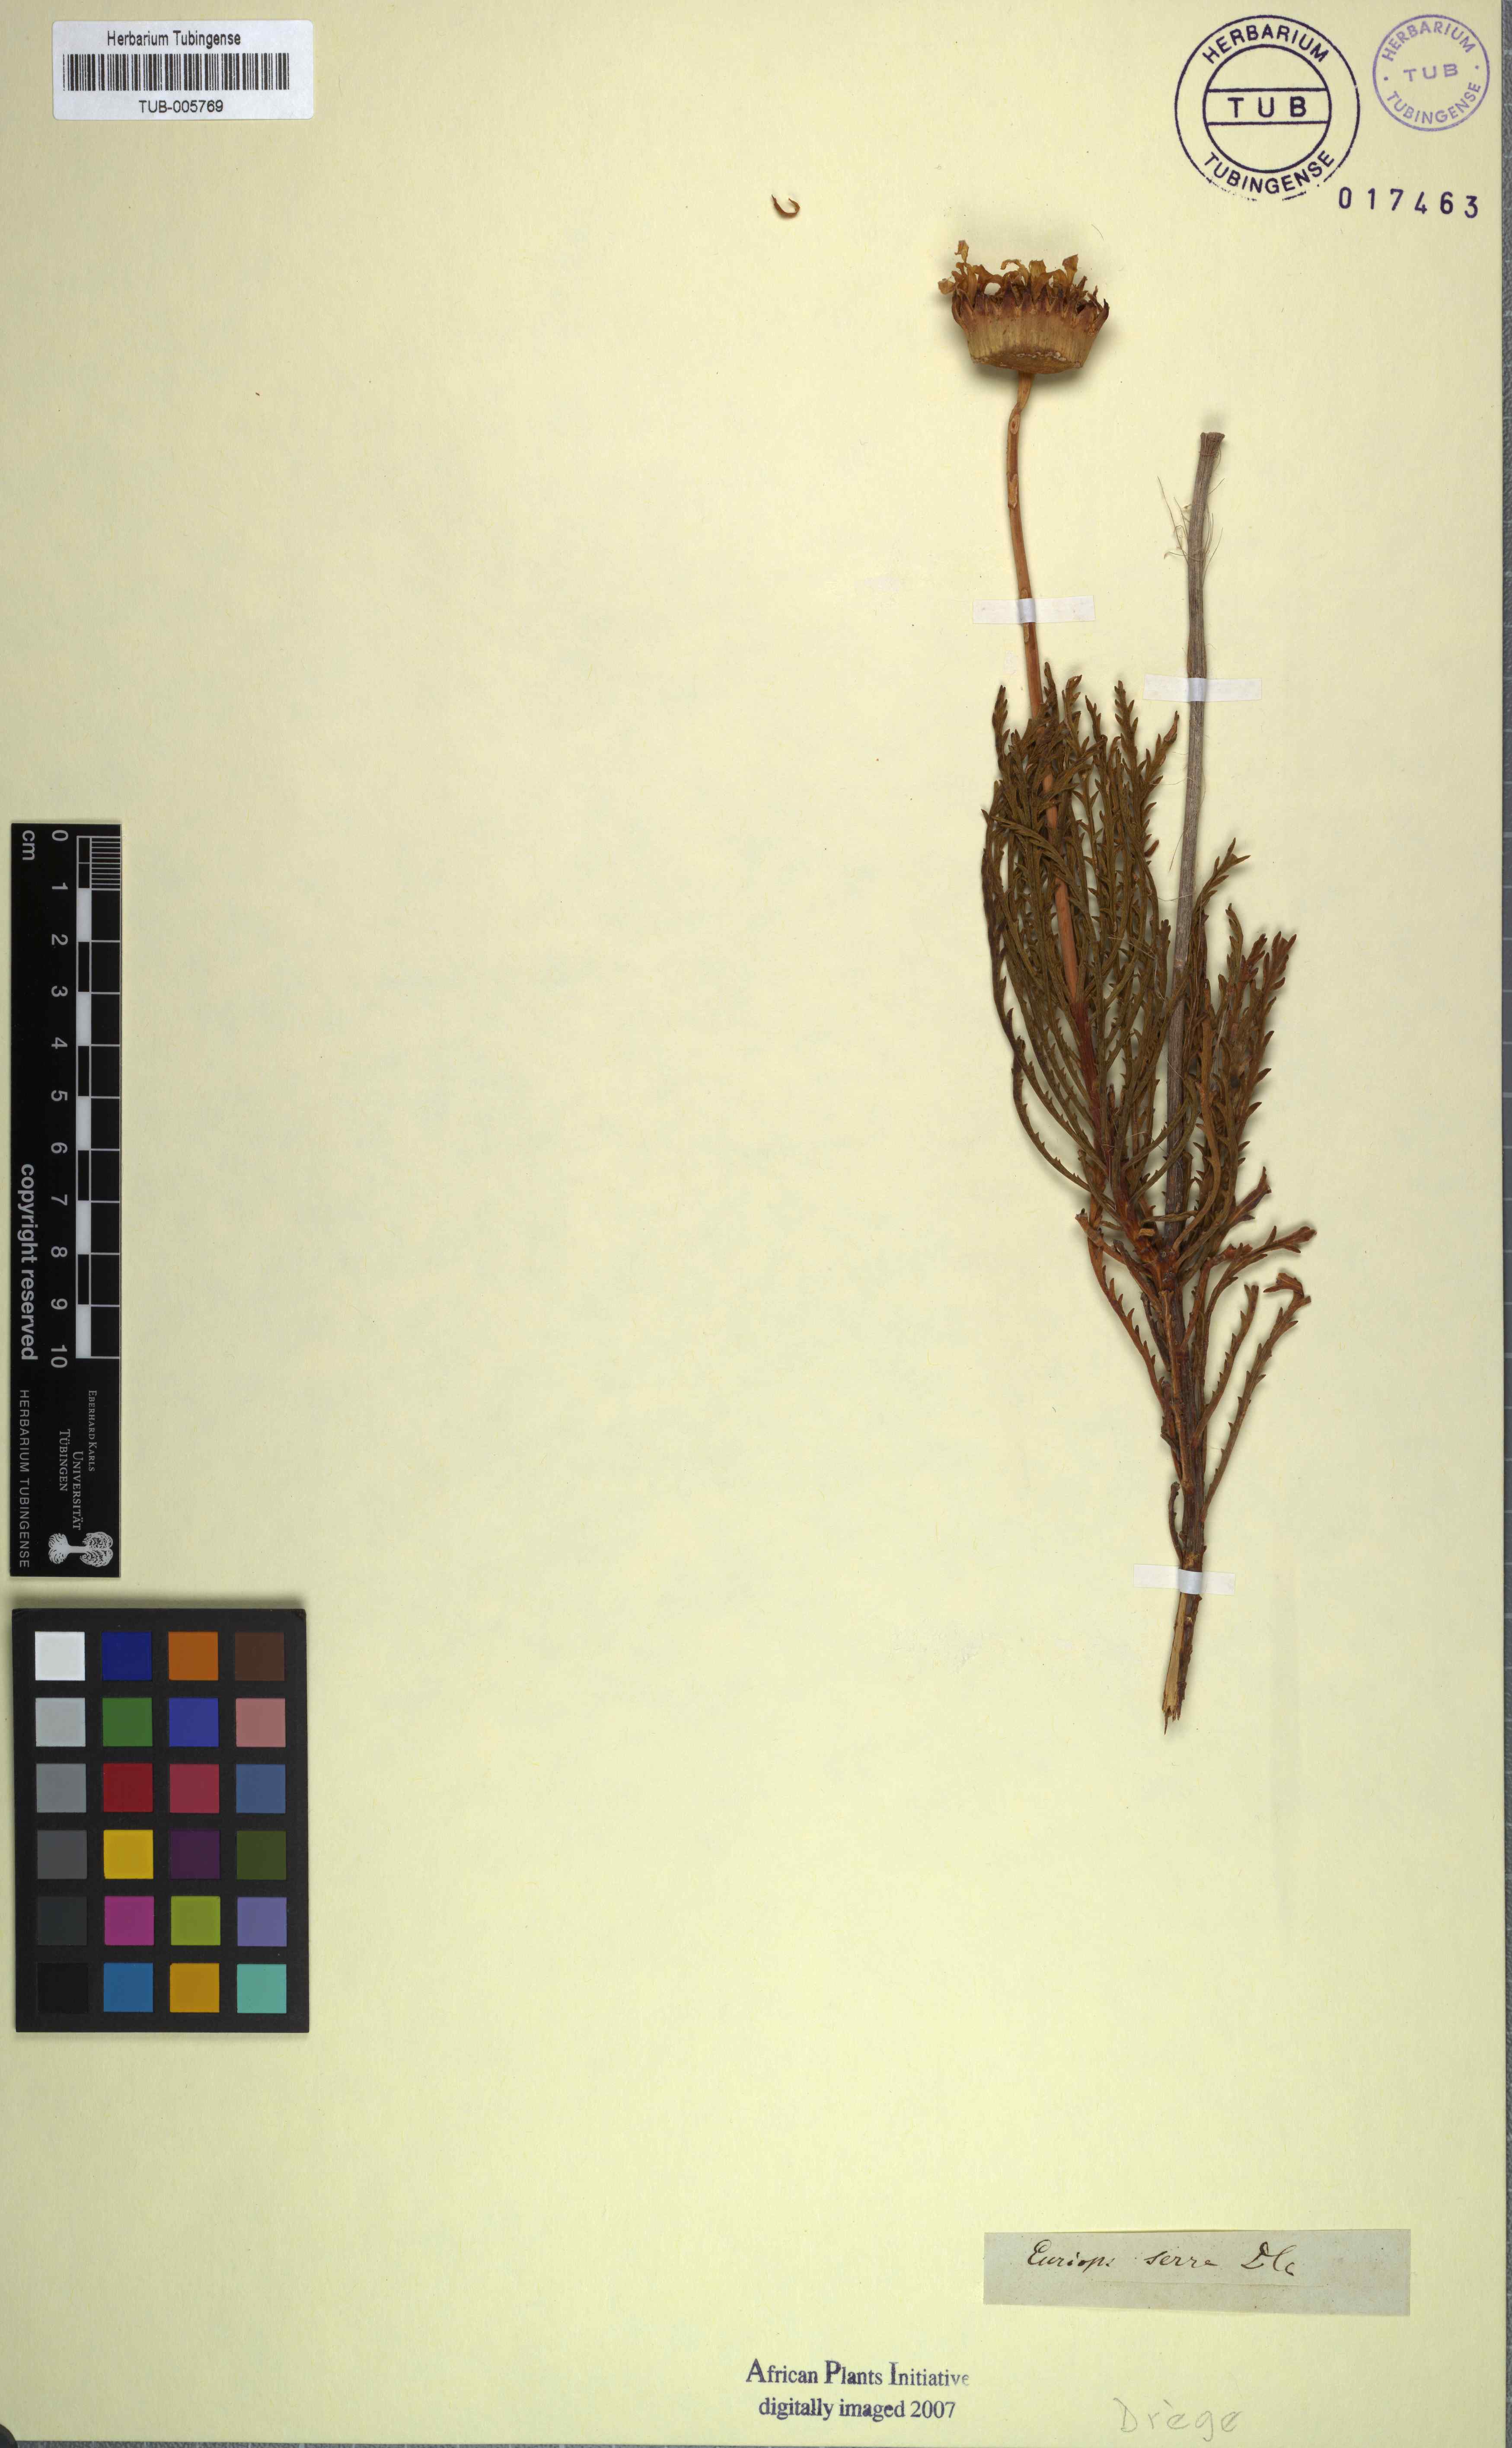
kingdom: Plantae
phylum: Tracheophyta
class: Magnoliopsida
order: Asterales
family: Asteraceae
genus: Euryops
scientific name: Euryops serra
